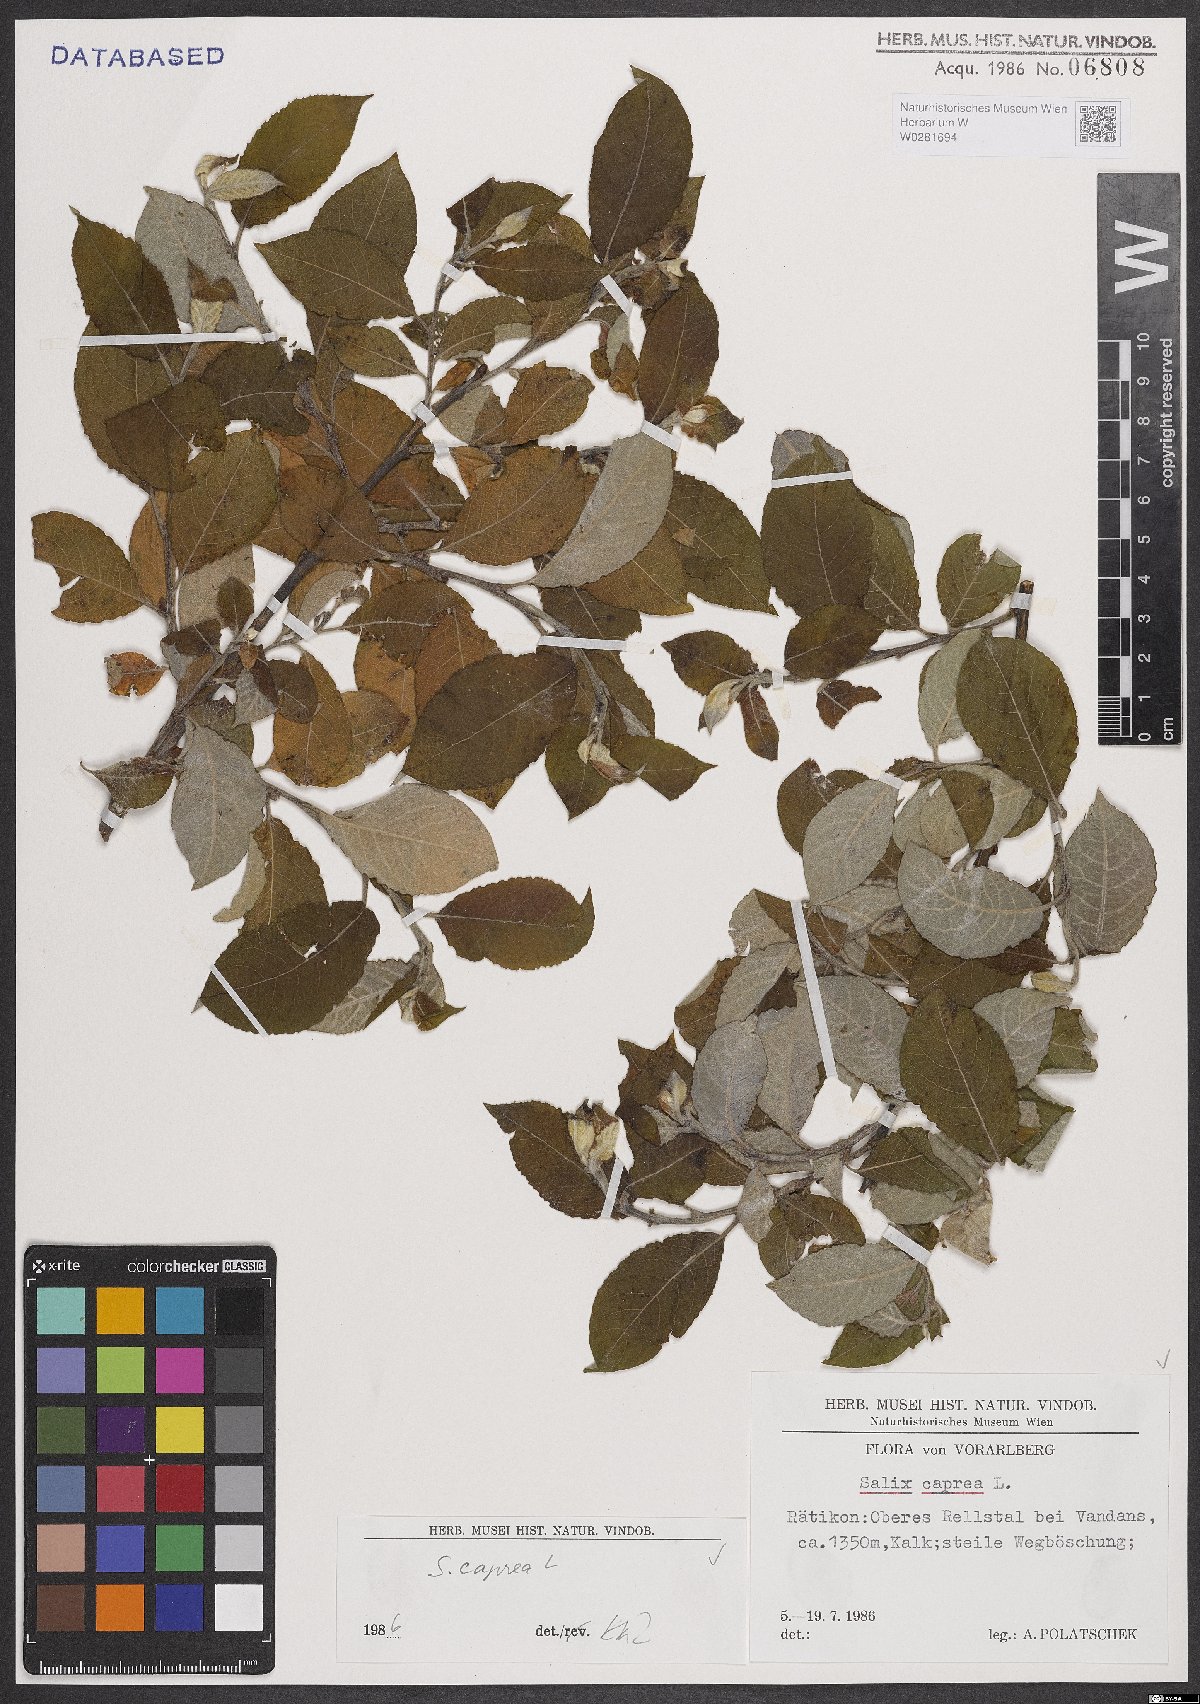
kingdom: Plantae
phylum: Tracheophyta
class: Magnoliopsida
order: Malpighiales
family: Salicaceae
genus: Salix
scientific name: Salix caprea
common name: Goat willow
